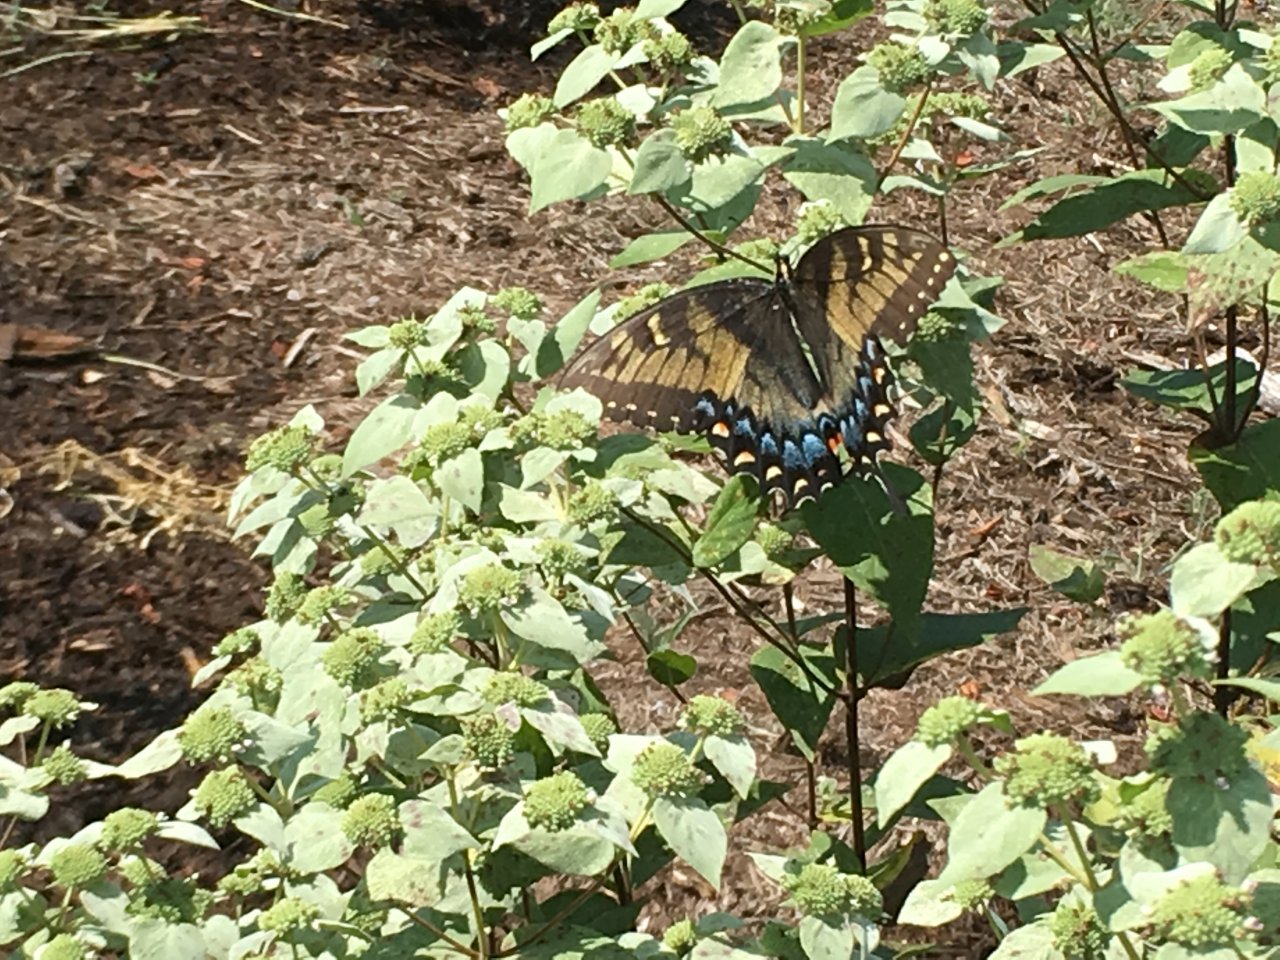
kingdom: Animalia
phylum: Arthropoda
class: Insecta
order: Lepidoptera
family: Papilionidae
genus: Pterourus
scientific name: Pterourus glaucus
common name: Eastern Tiger Swallowtail
